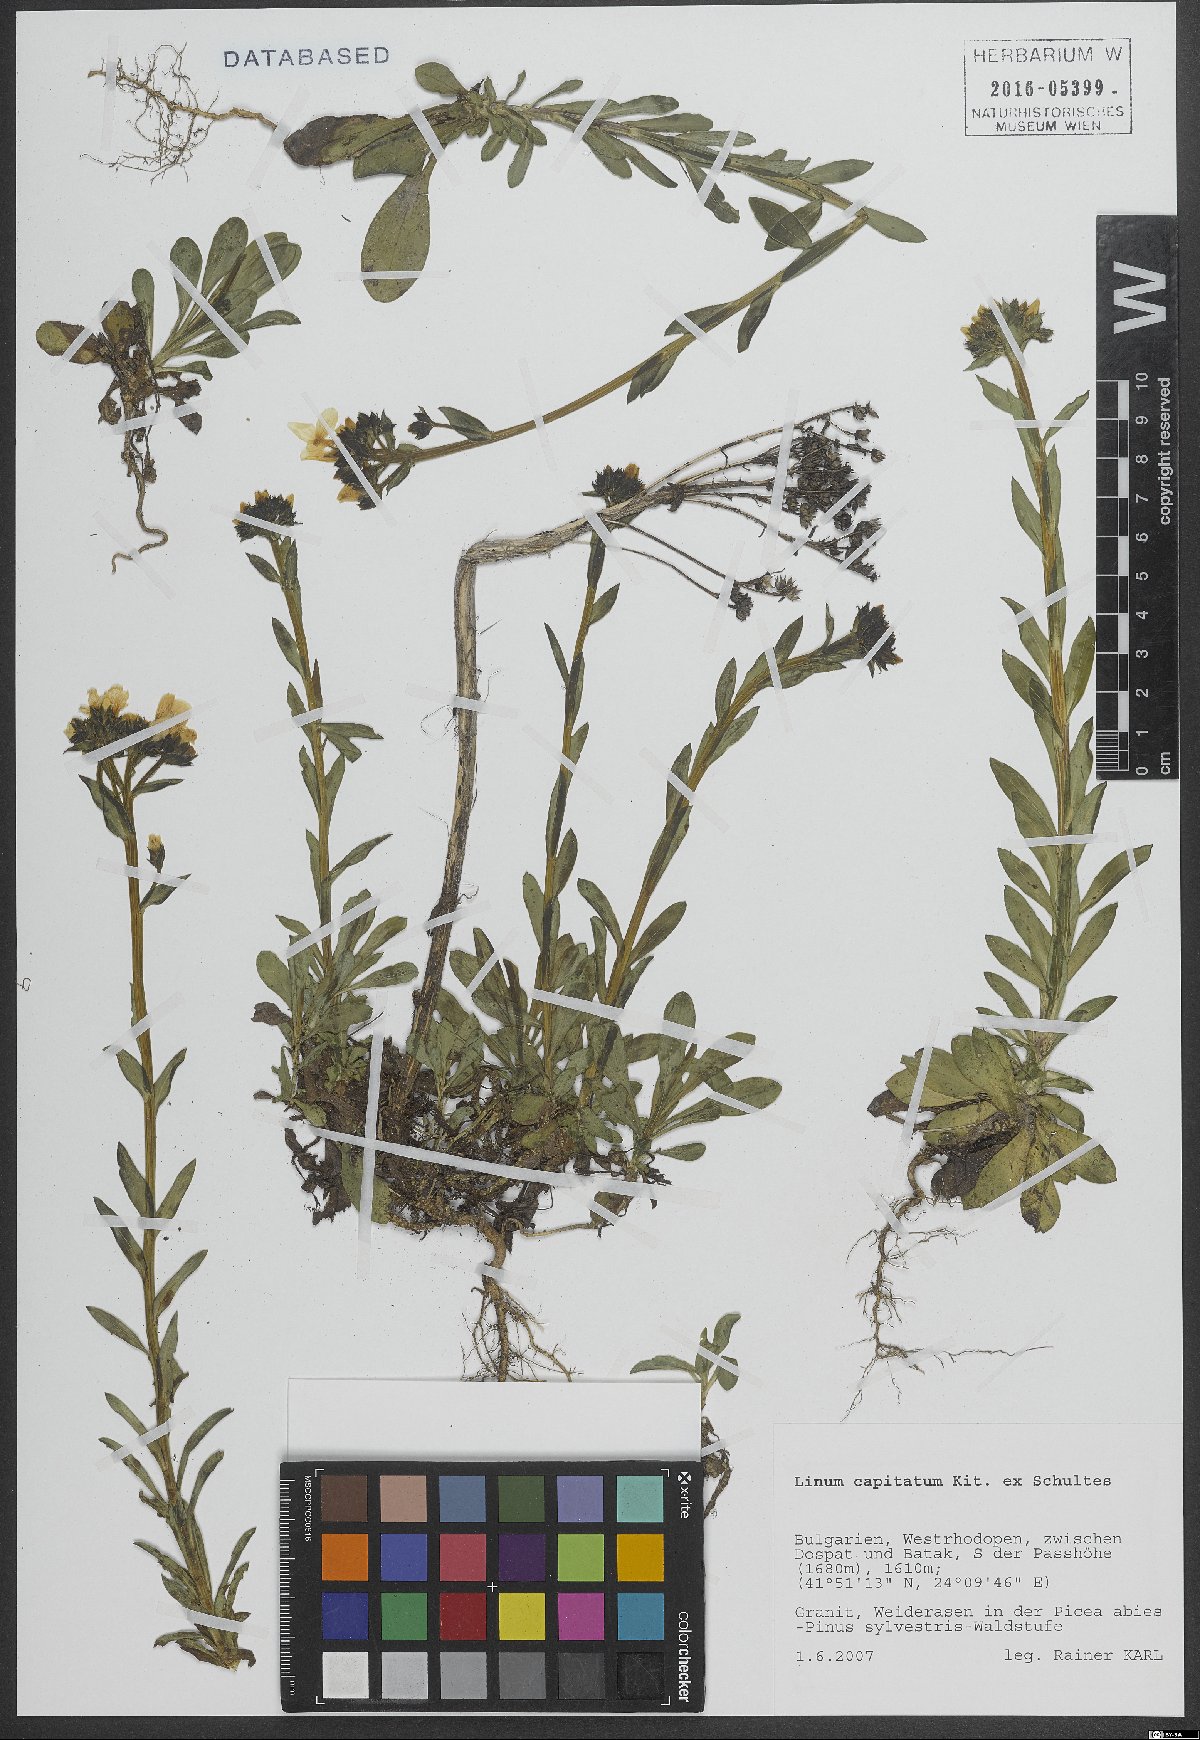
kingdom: Plantae
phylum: Tracheophyta
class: Magnoliopsida
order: Malpighiales
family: Linaceae
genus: Linum
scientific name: Linum capitatum
